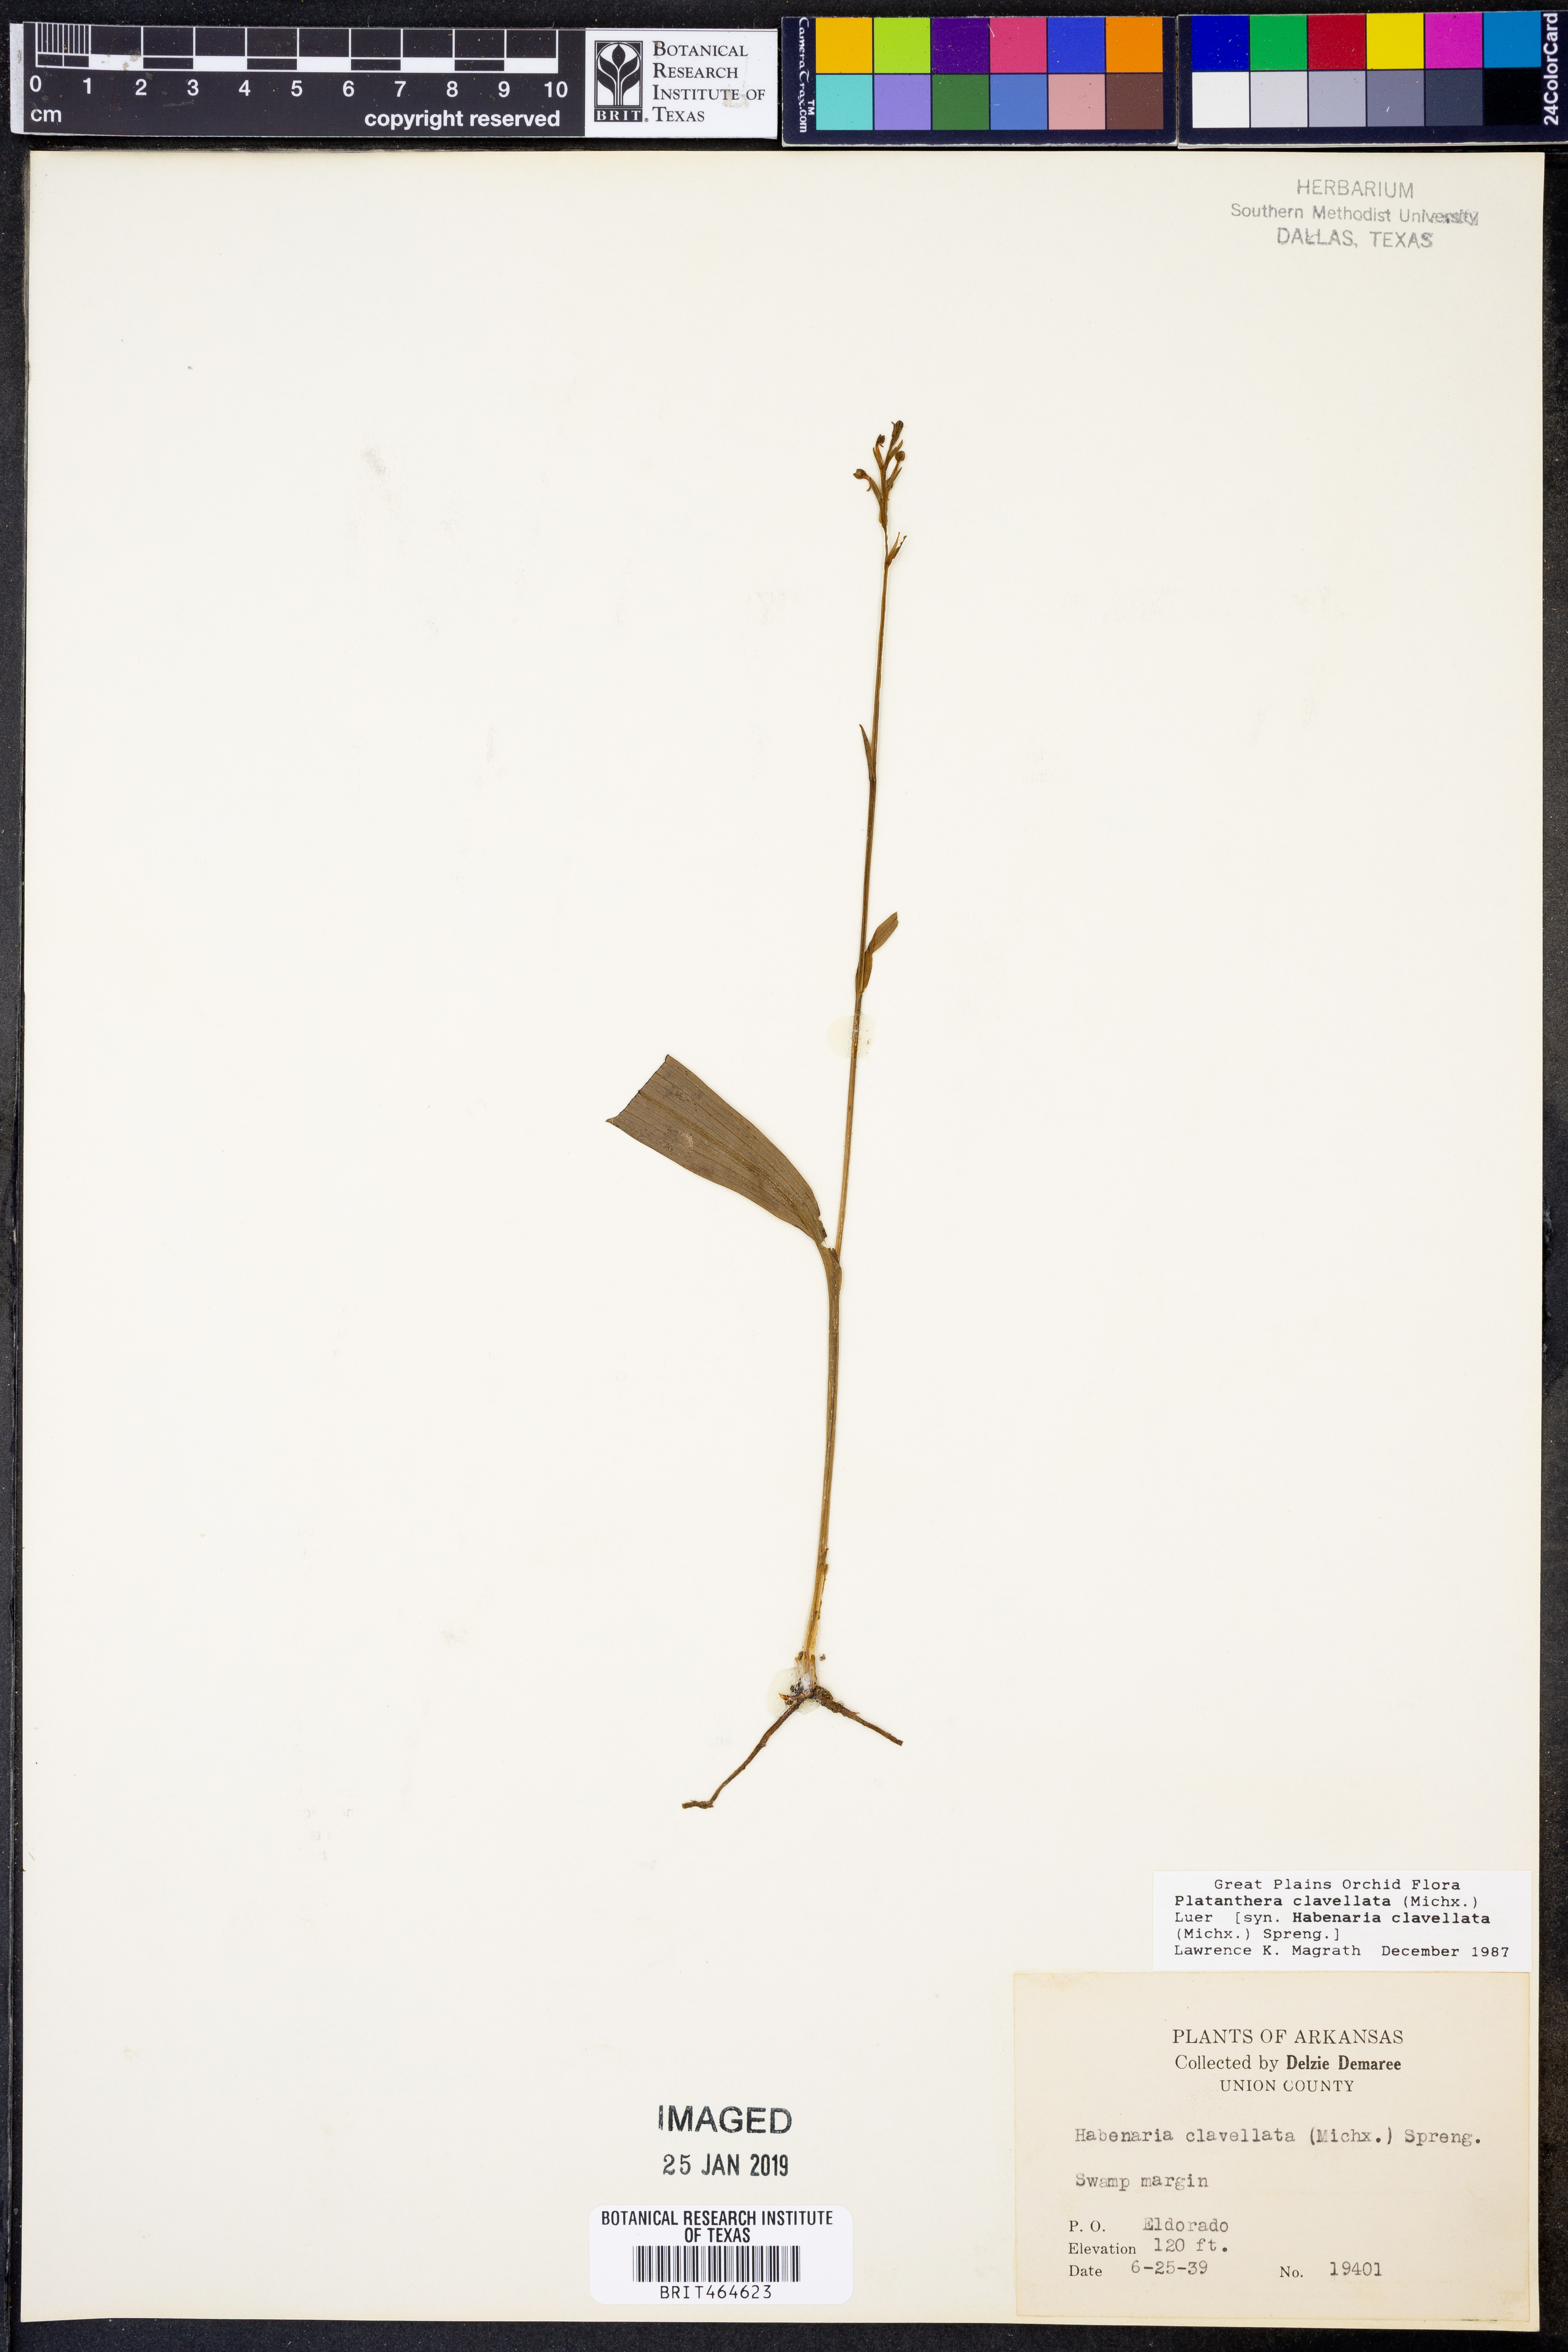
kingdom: Plantae
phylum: Tracheophyta
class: Liliopsida
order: Asparagales
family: Orchidaceae
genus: Platanthera
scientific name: Platanthera clavellata
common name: Club-spur orchid
